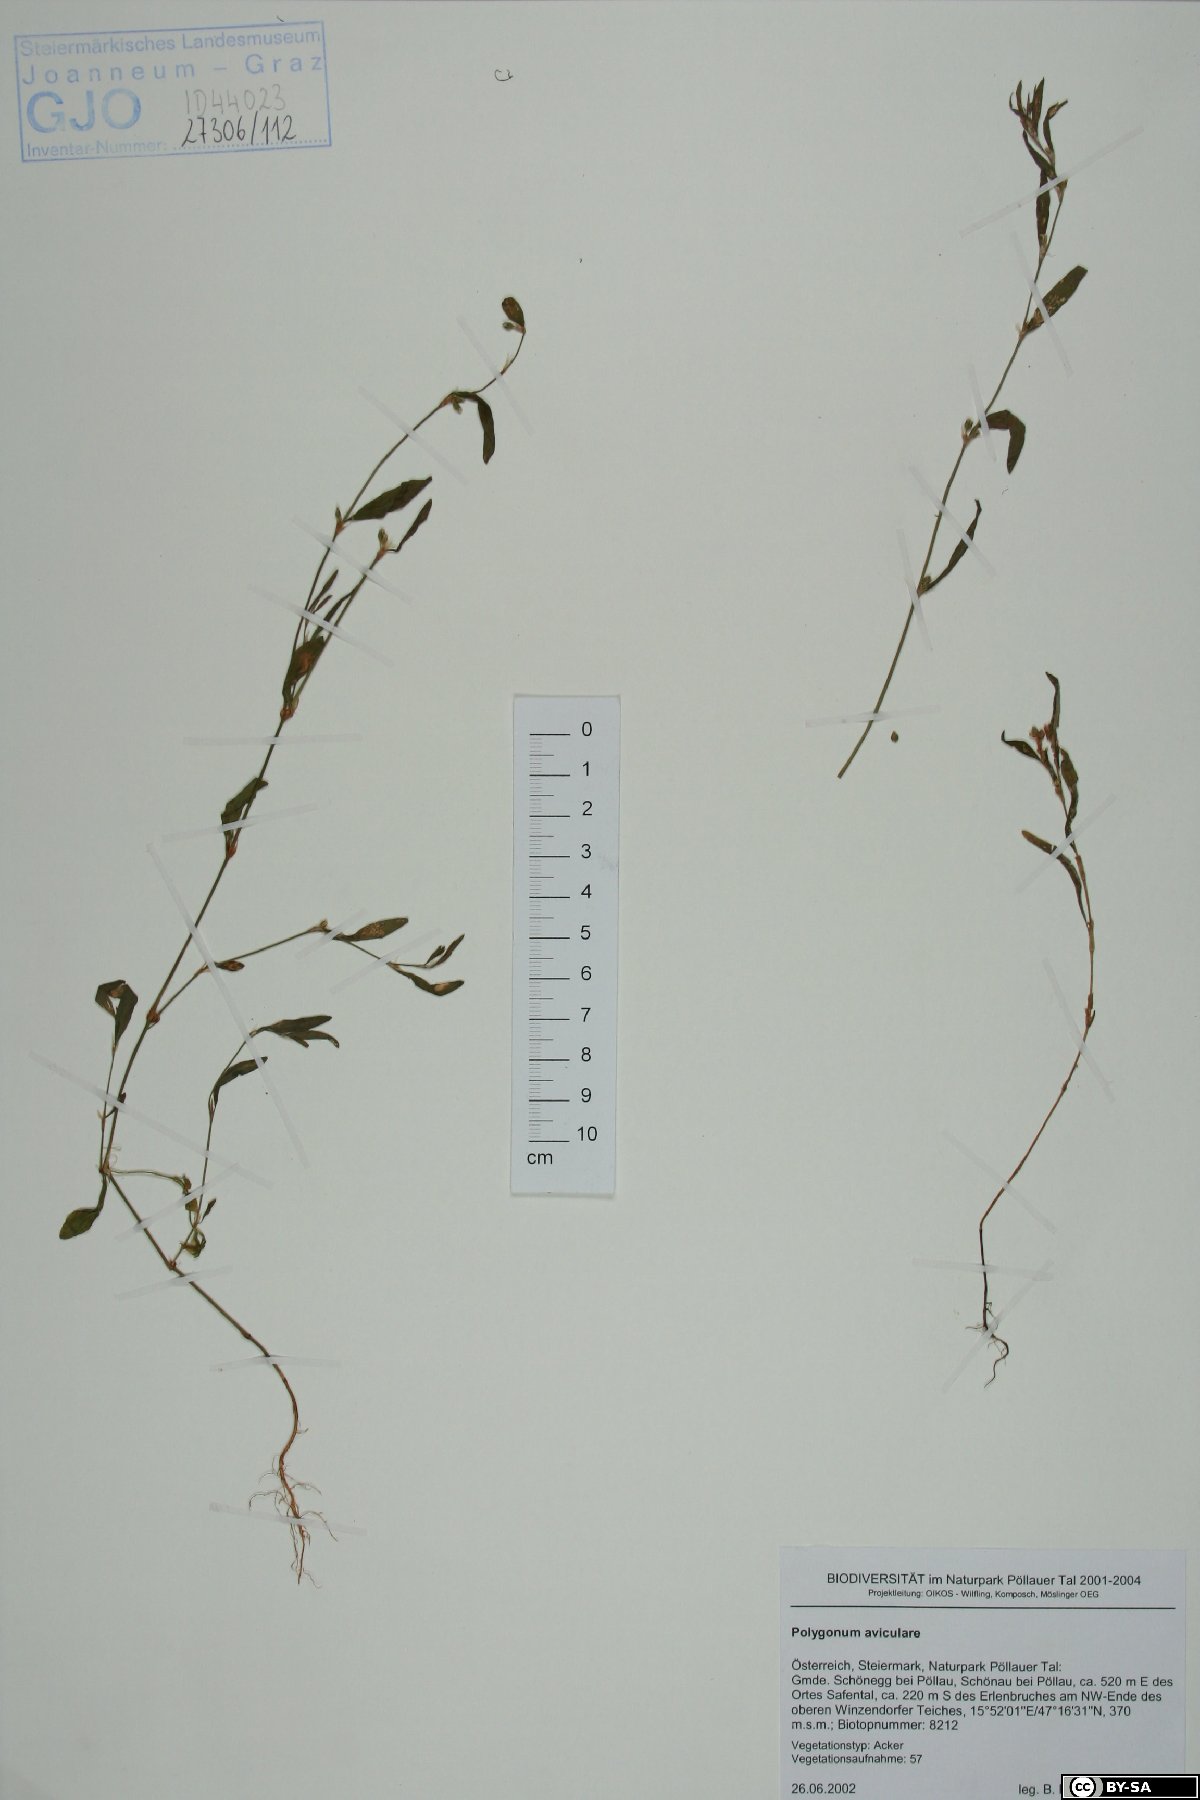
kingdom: Plantae
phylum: Tracheophyta
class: Magnoliopsida
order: Caryophyllales
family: Polygonaceae
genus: Polygonum
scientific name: Polygonum aviculare
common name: Prostrate knotweed
